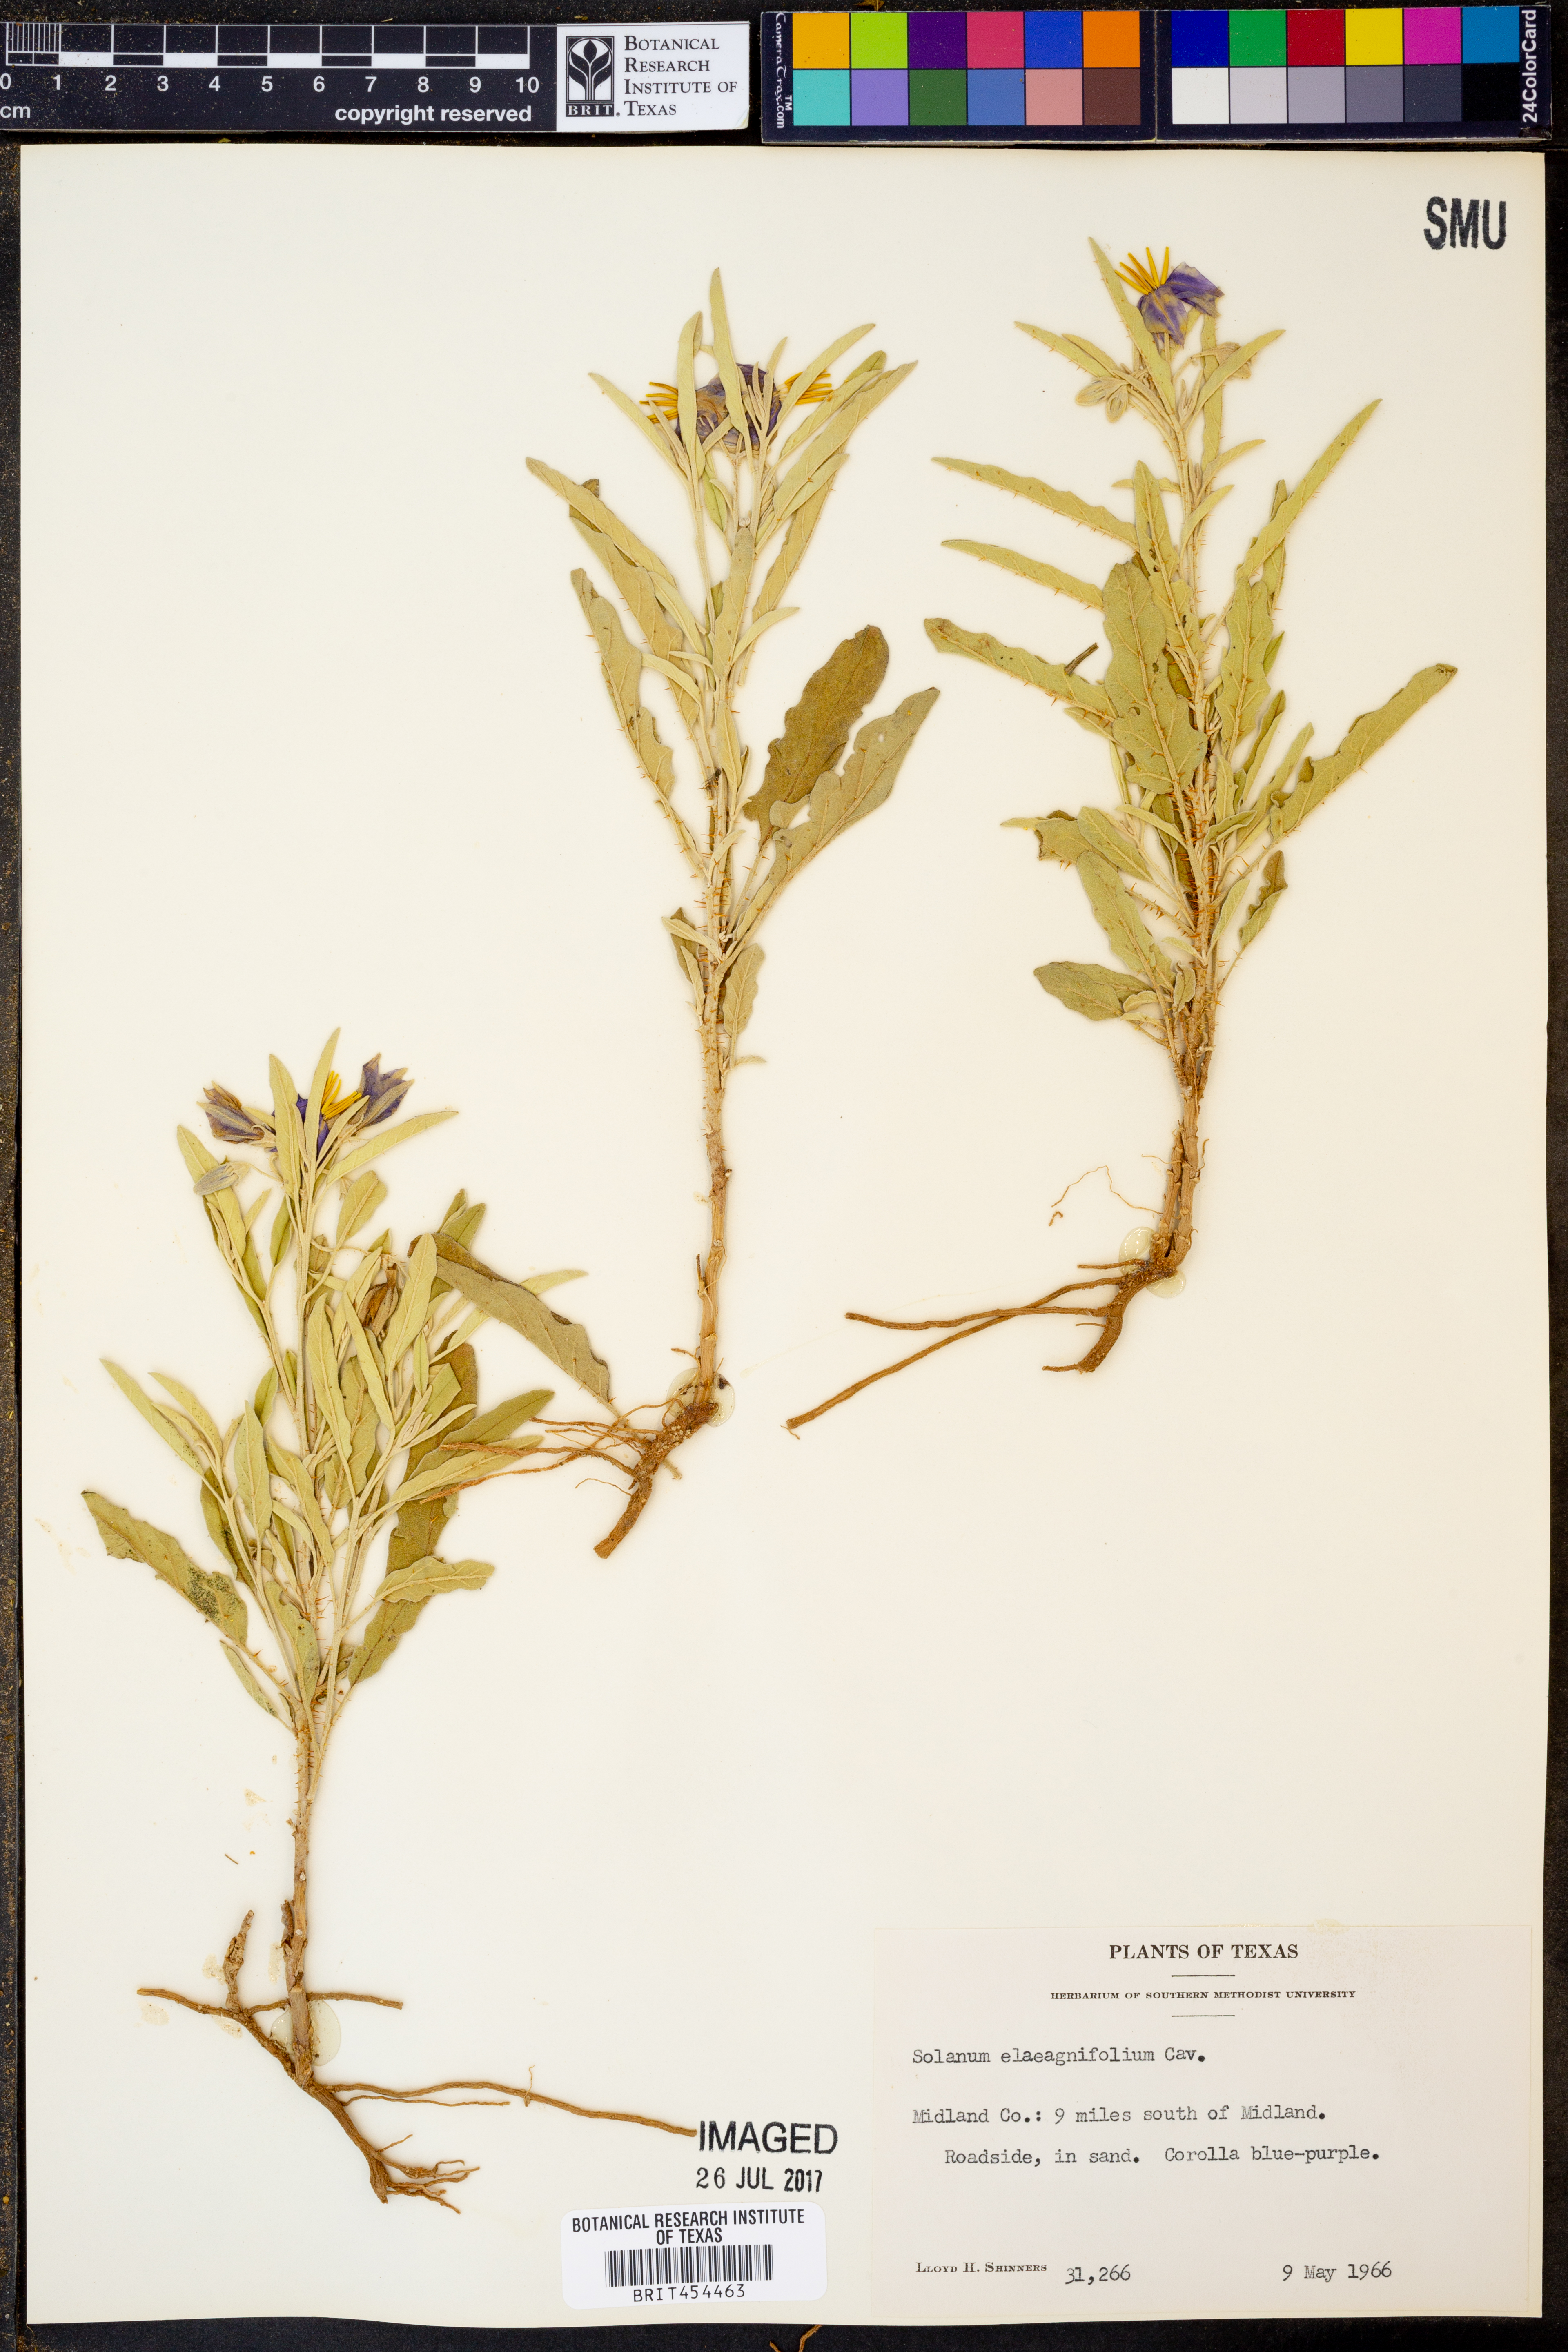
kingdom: Plantae
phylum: Tracheophyta
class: Magnoliopsida
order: Solanales
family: Solanaceae
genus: Solanum
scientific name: Solanum elaeagnifolium
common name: Silverleaf nightshade
